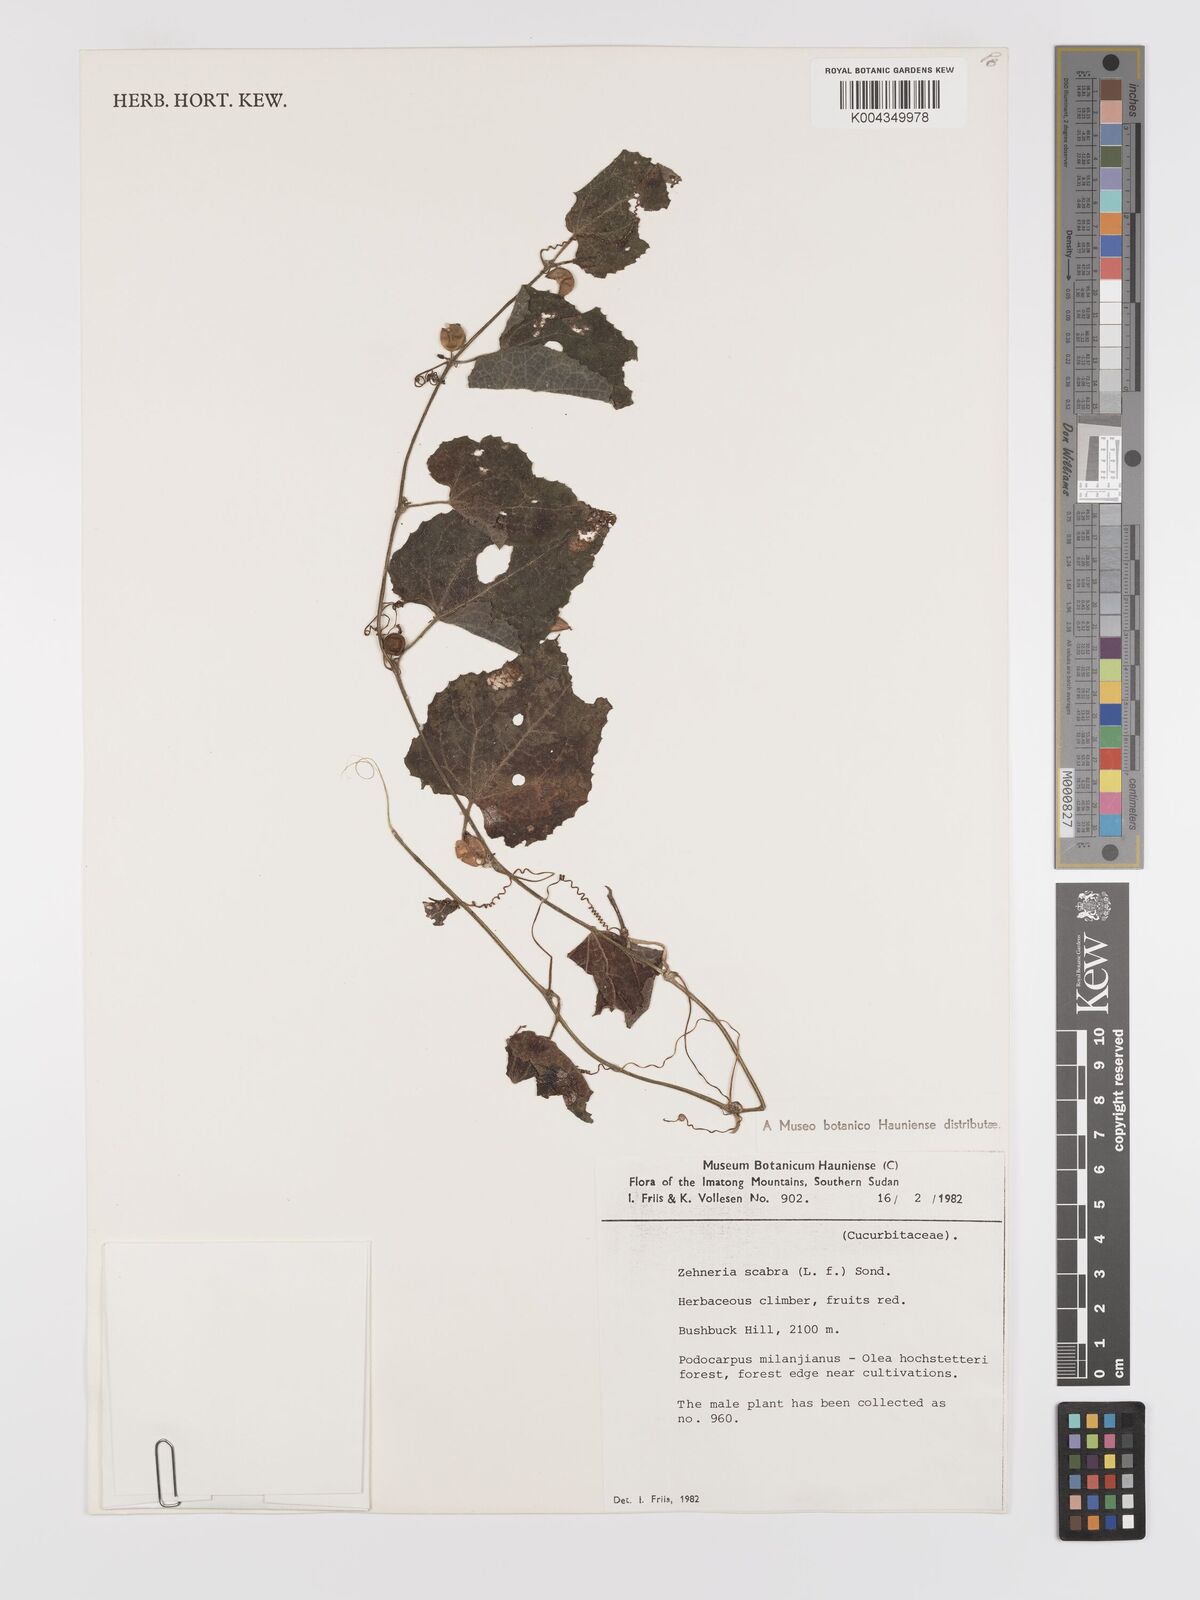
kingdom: Plantae
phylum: Tracheophyta
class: Magnoliopsida
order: Cucurbitales
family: Cucurbitaceae
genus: Zehneria
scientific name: Zehneria scabra
